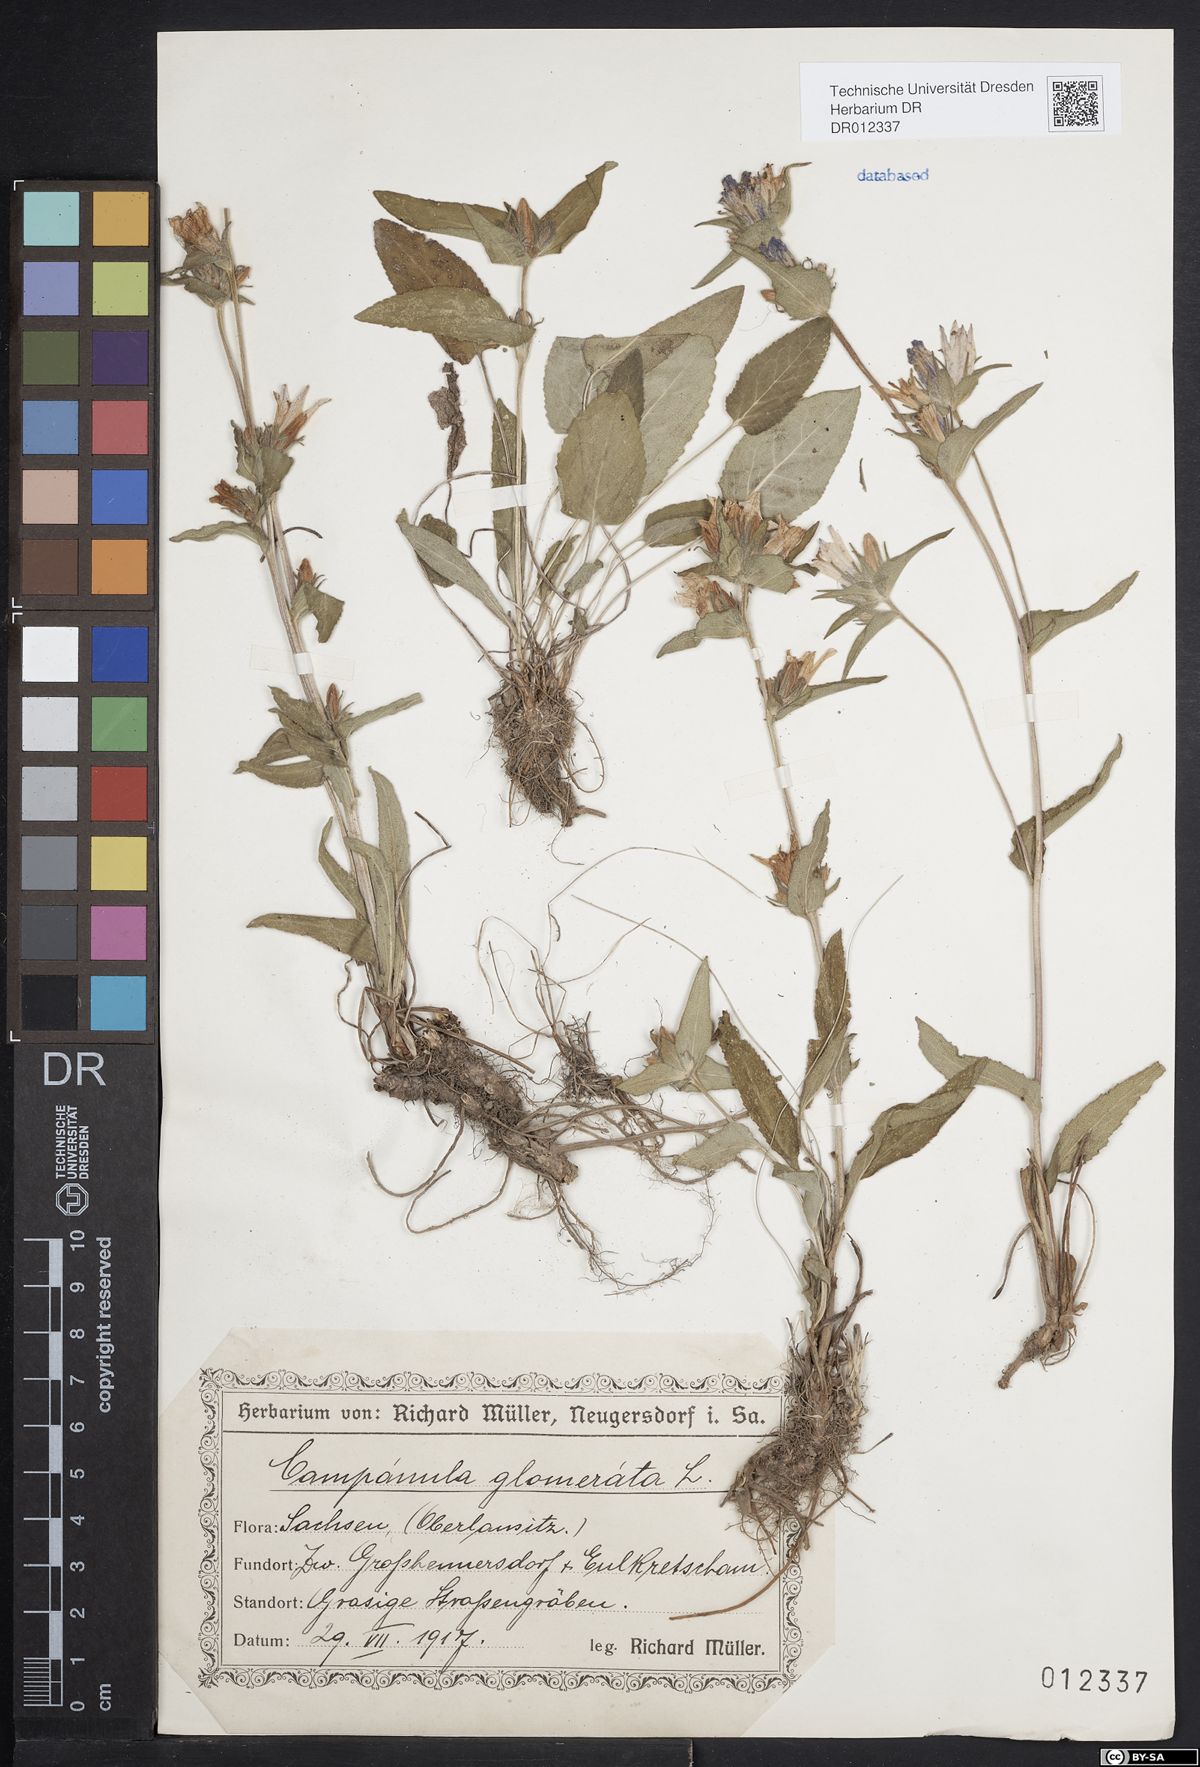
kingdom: Plantae
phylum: Tracheophyta
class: Magnoliopsida
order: Asterales
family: Campanulaceae
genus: Campanula
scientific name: Campanula glomerata
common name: Clustered bellflower
